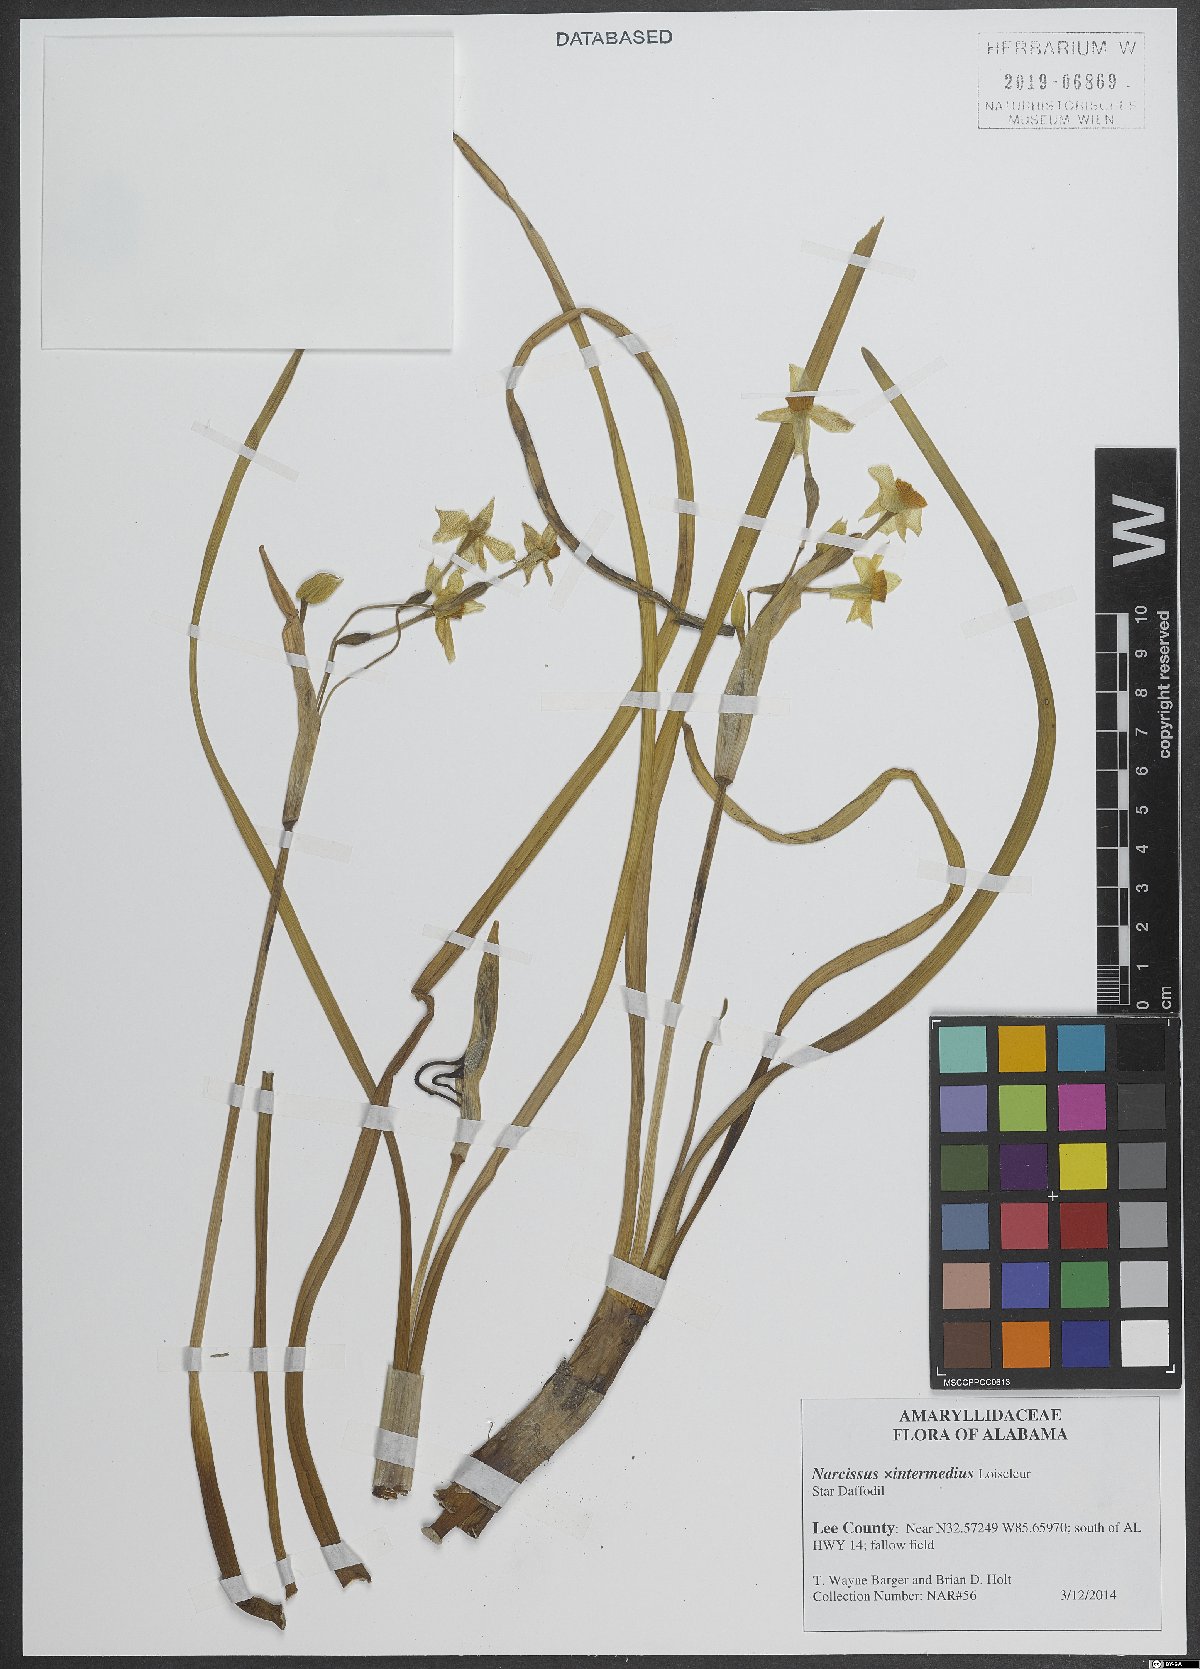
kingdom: Plantae
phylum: Tracheophyta
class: Liliopsida
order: Asparagales
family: Amaryllidaceae
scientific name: Amaryllidaceae
